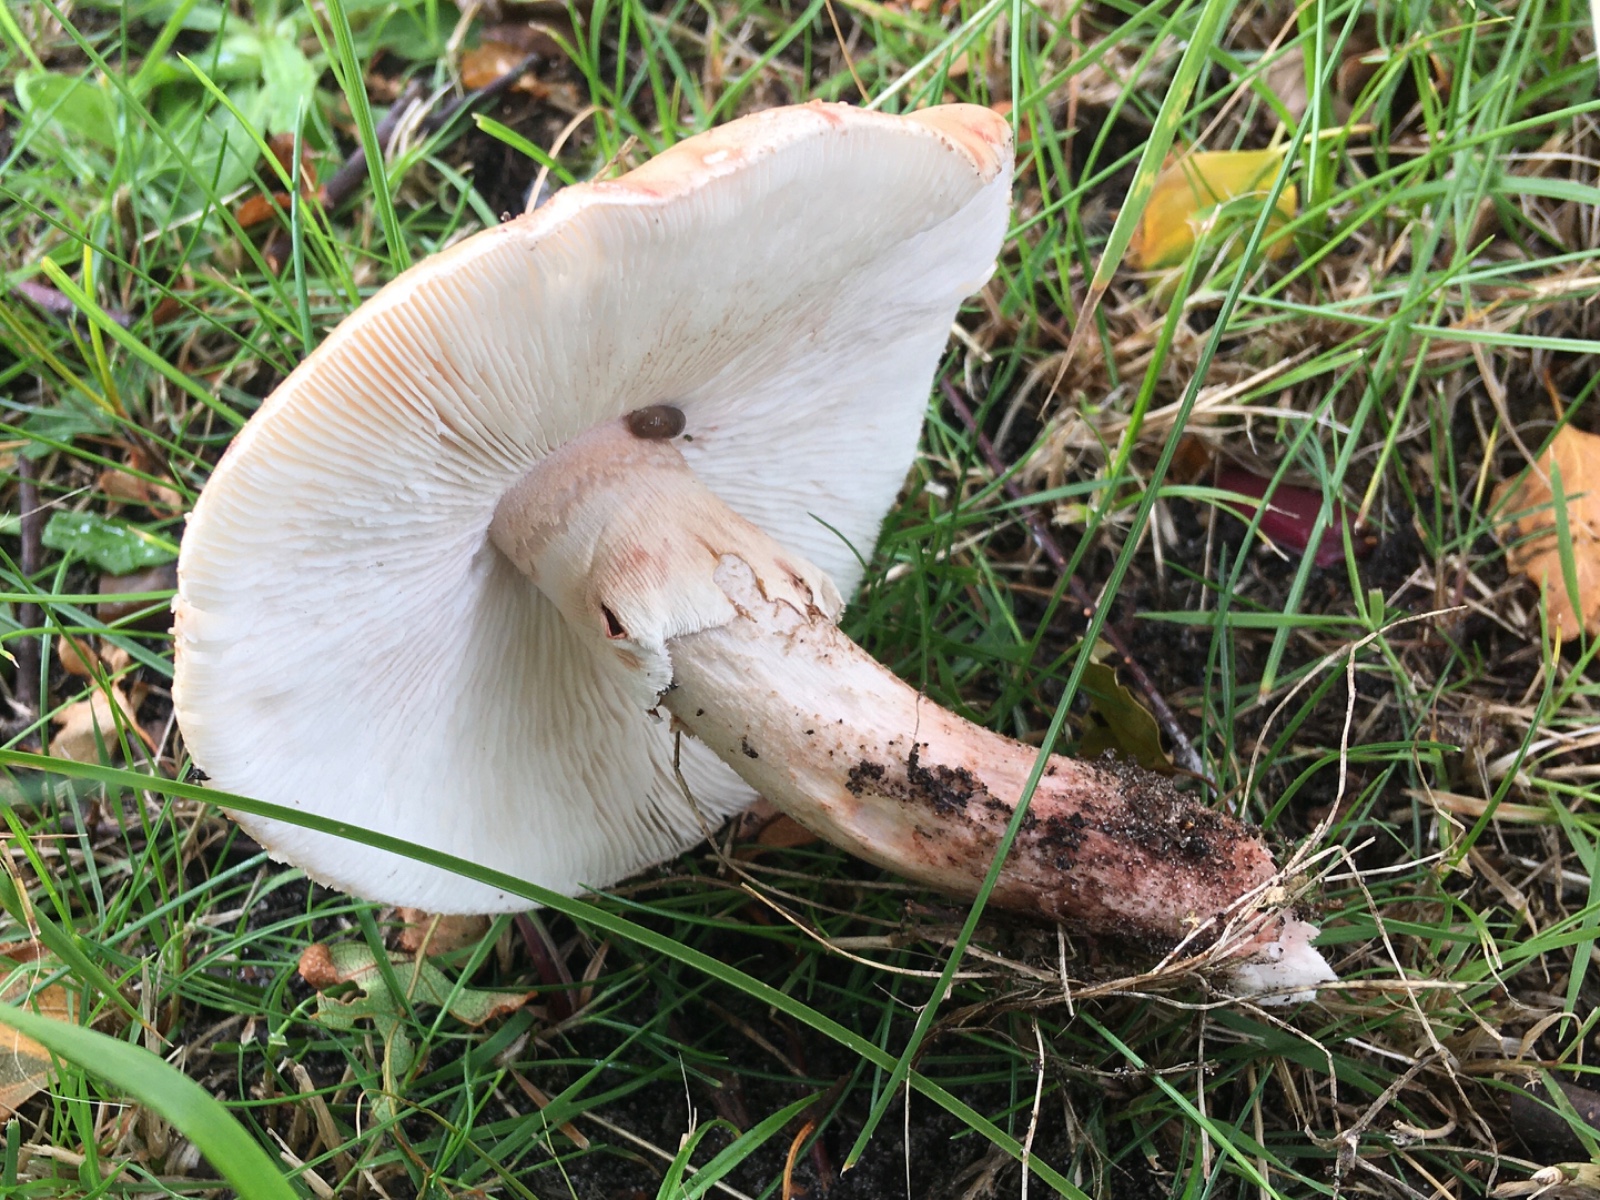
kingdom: Fungi
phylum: Basidiomycota
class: Agaricomycetes
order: Agaricales
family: Amanitaceae
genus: Amanita
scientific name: Amanita rubescens
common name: rødmende fluesvamp
